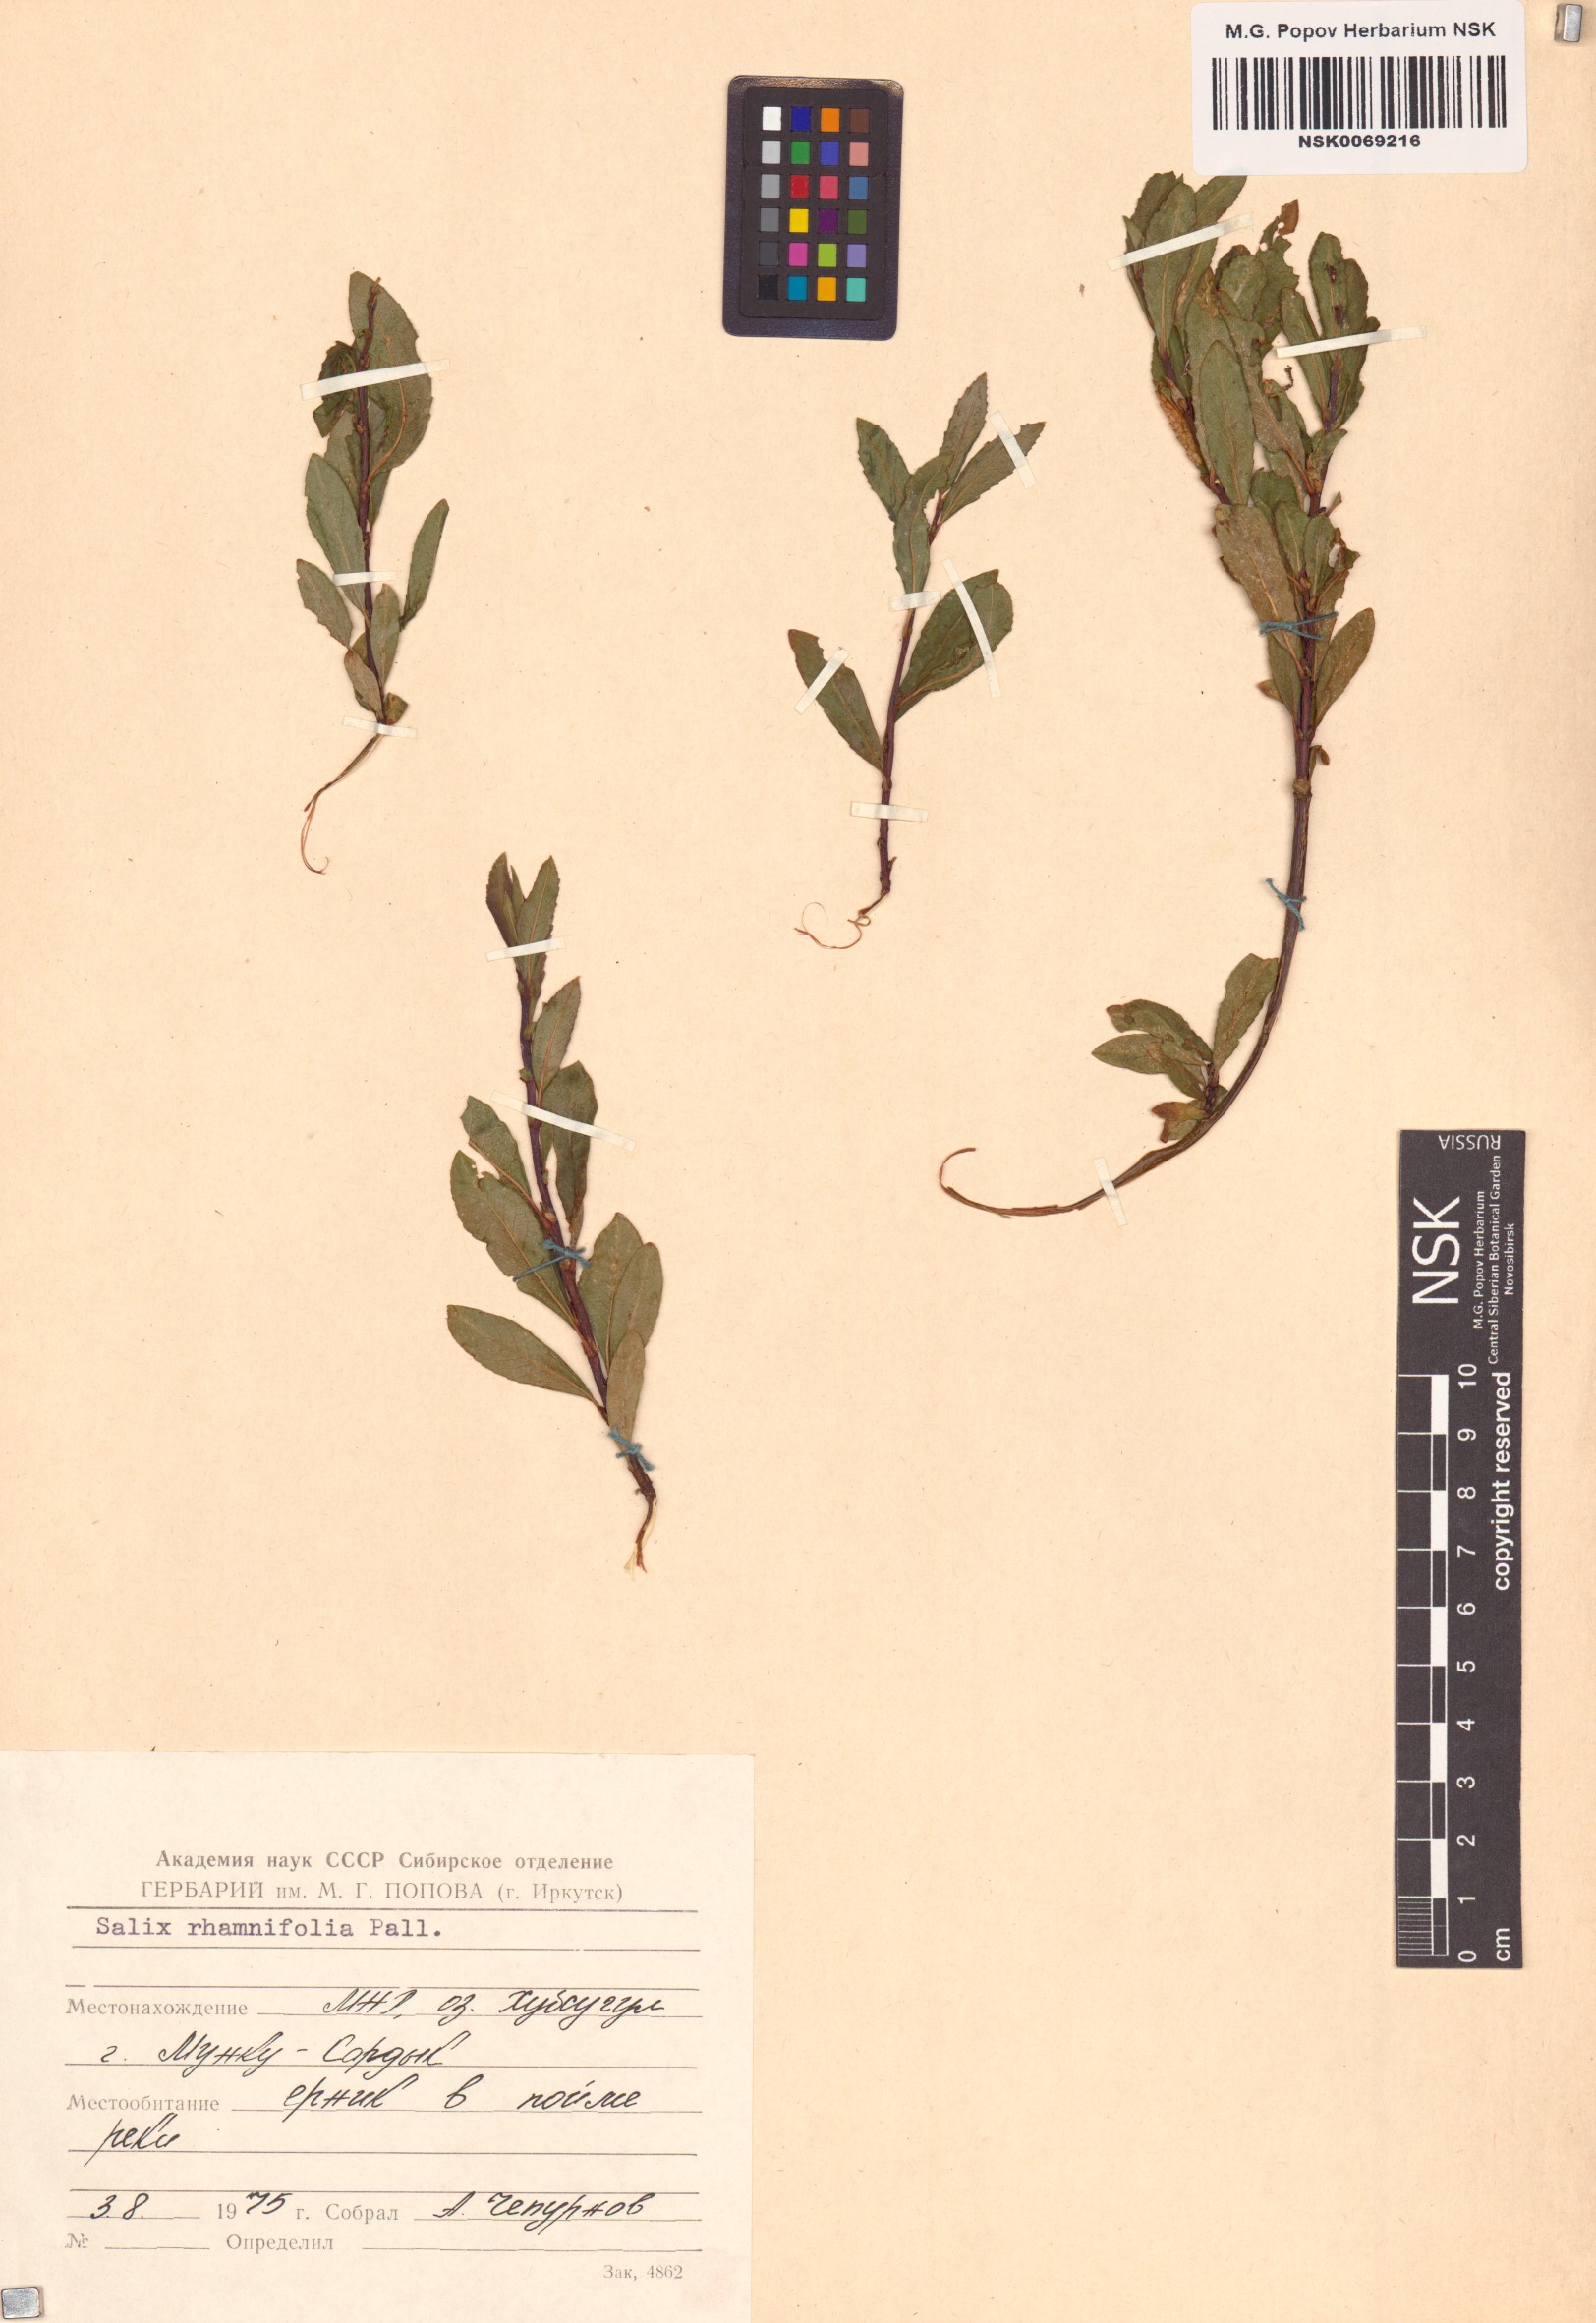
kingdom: Plantae
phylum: Tracheophyta
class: Magnoliopsida
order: Malpighiales
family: Salicaceae
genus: Salix
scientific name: Salix rhamnifolia
